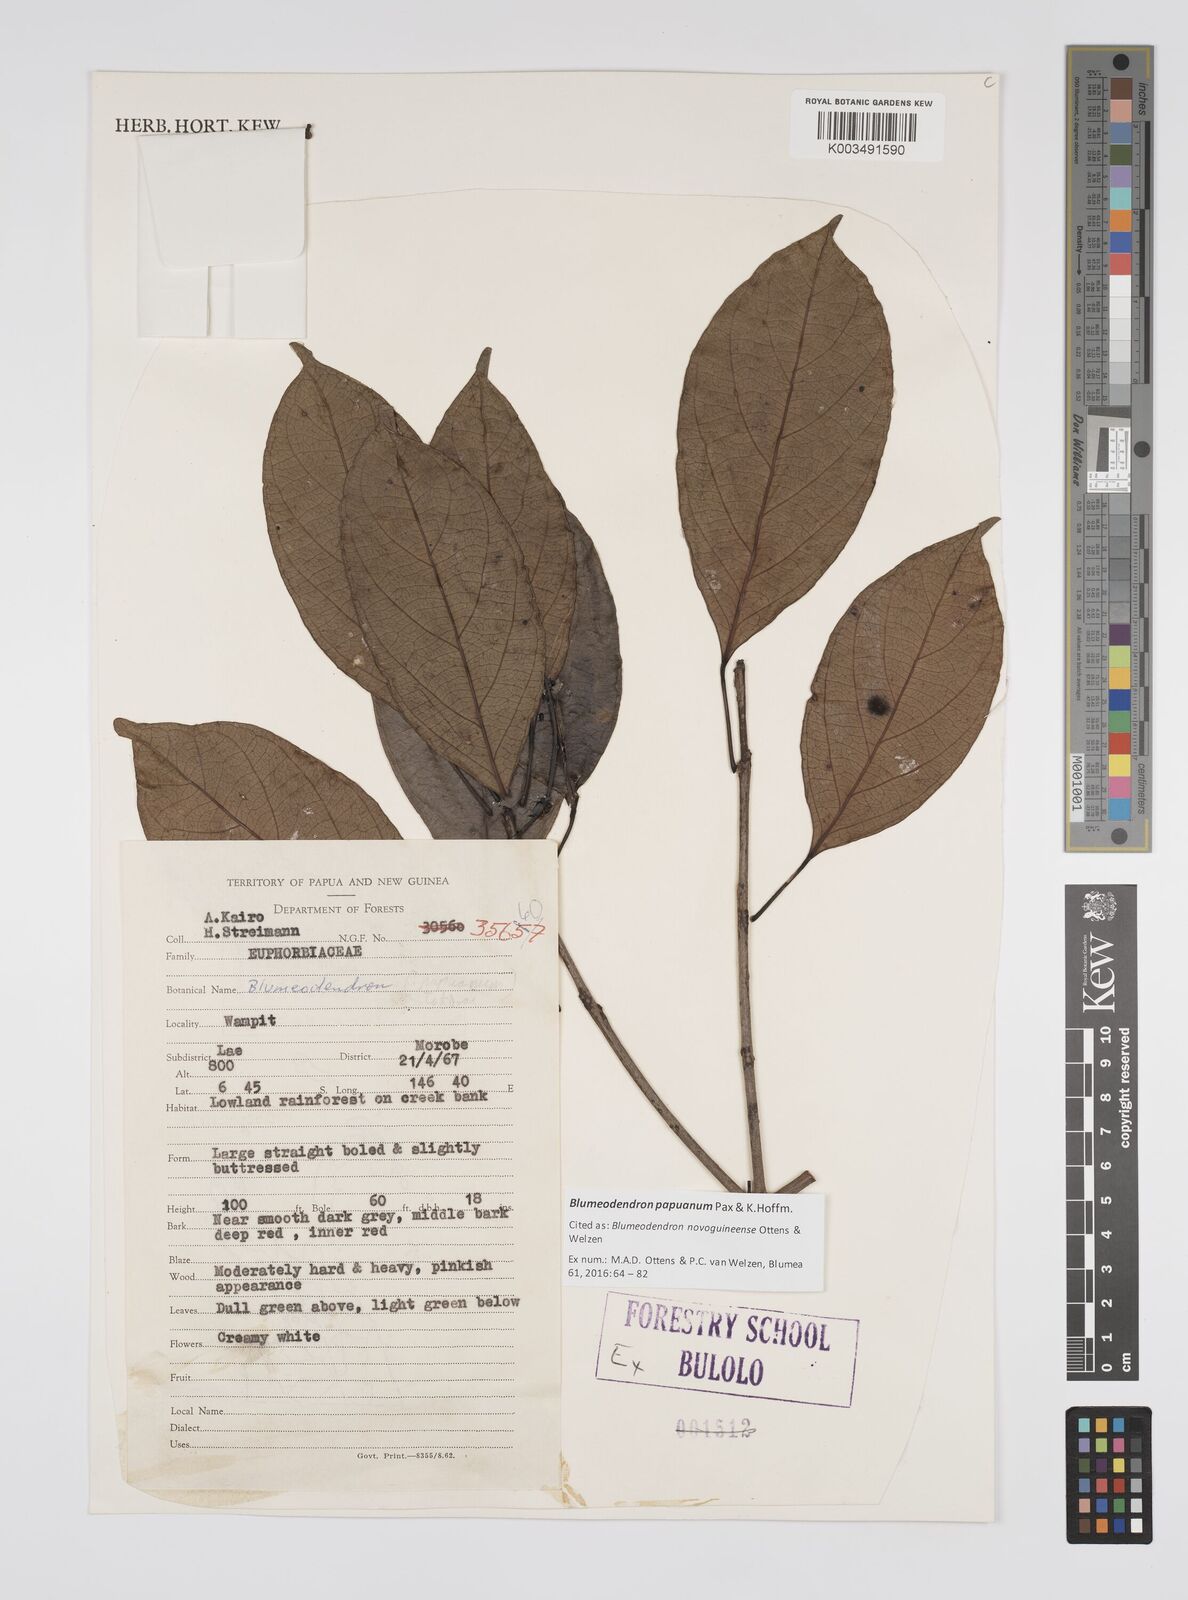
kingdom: Plantae
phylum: Tracheophyta
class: Magnoliopsida
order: Malpighiales
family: Euphorbiaceae
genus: Blumeodendron
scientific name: Blumeodendron papuanum
